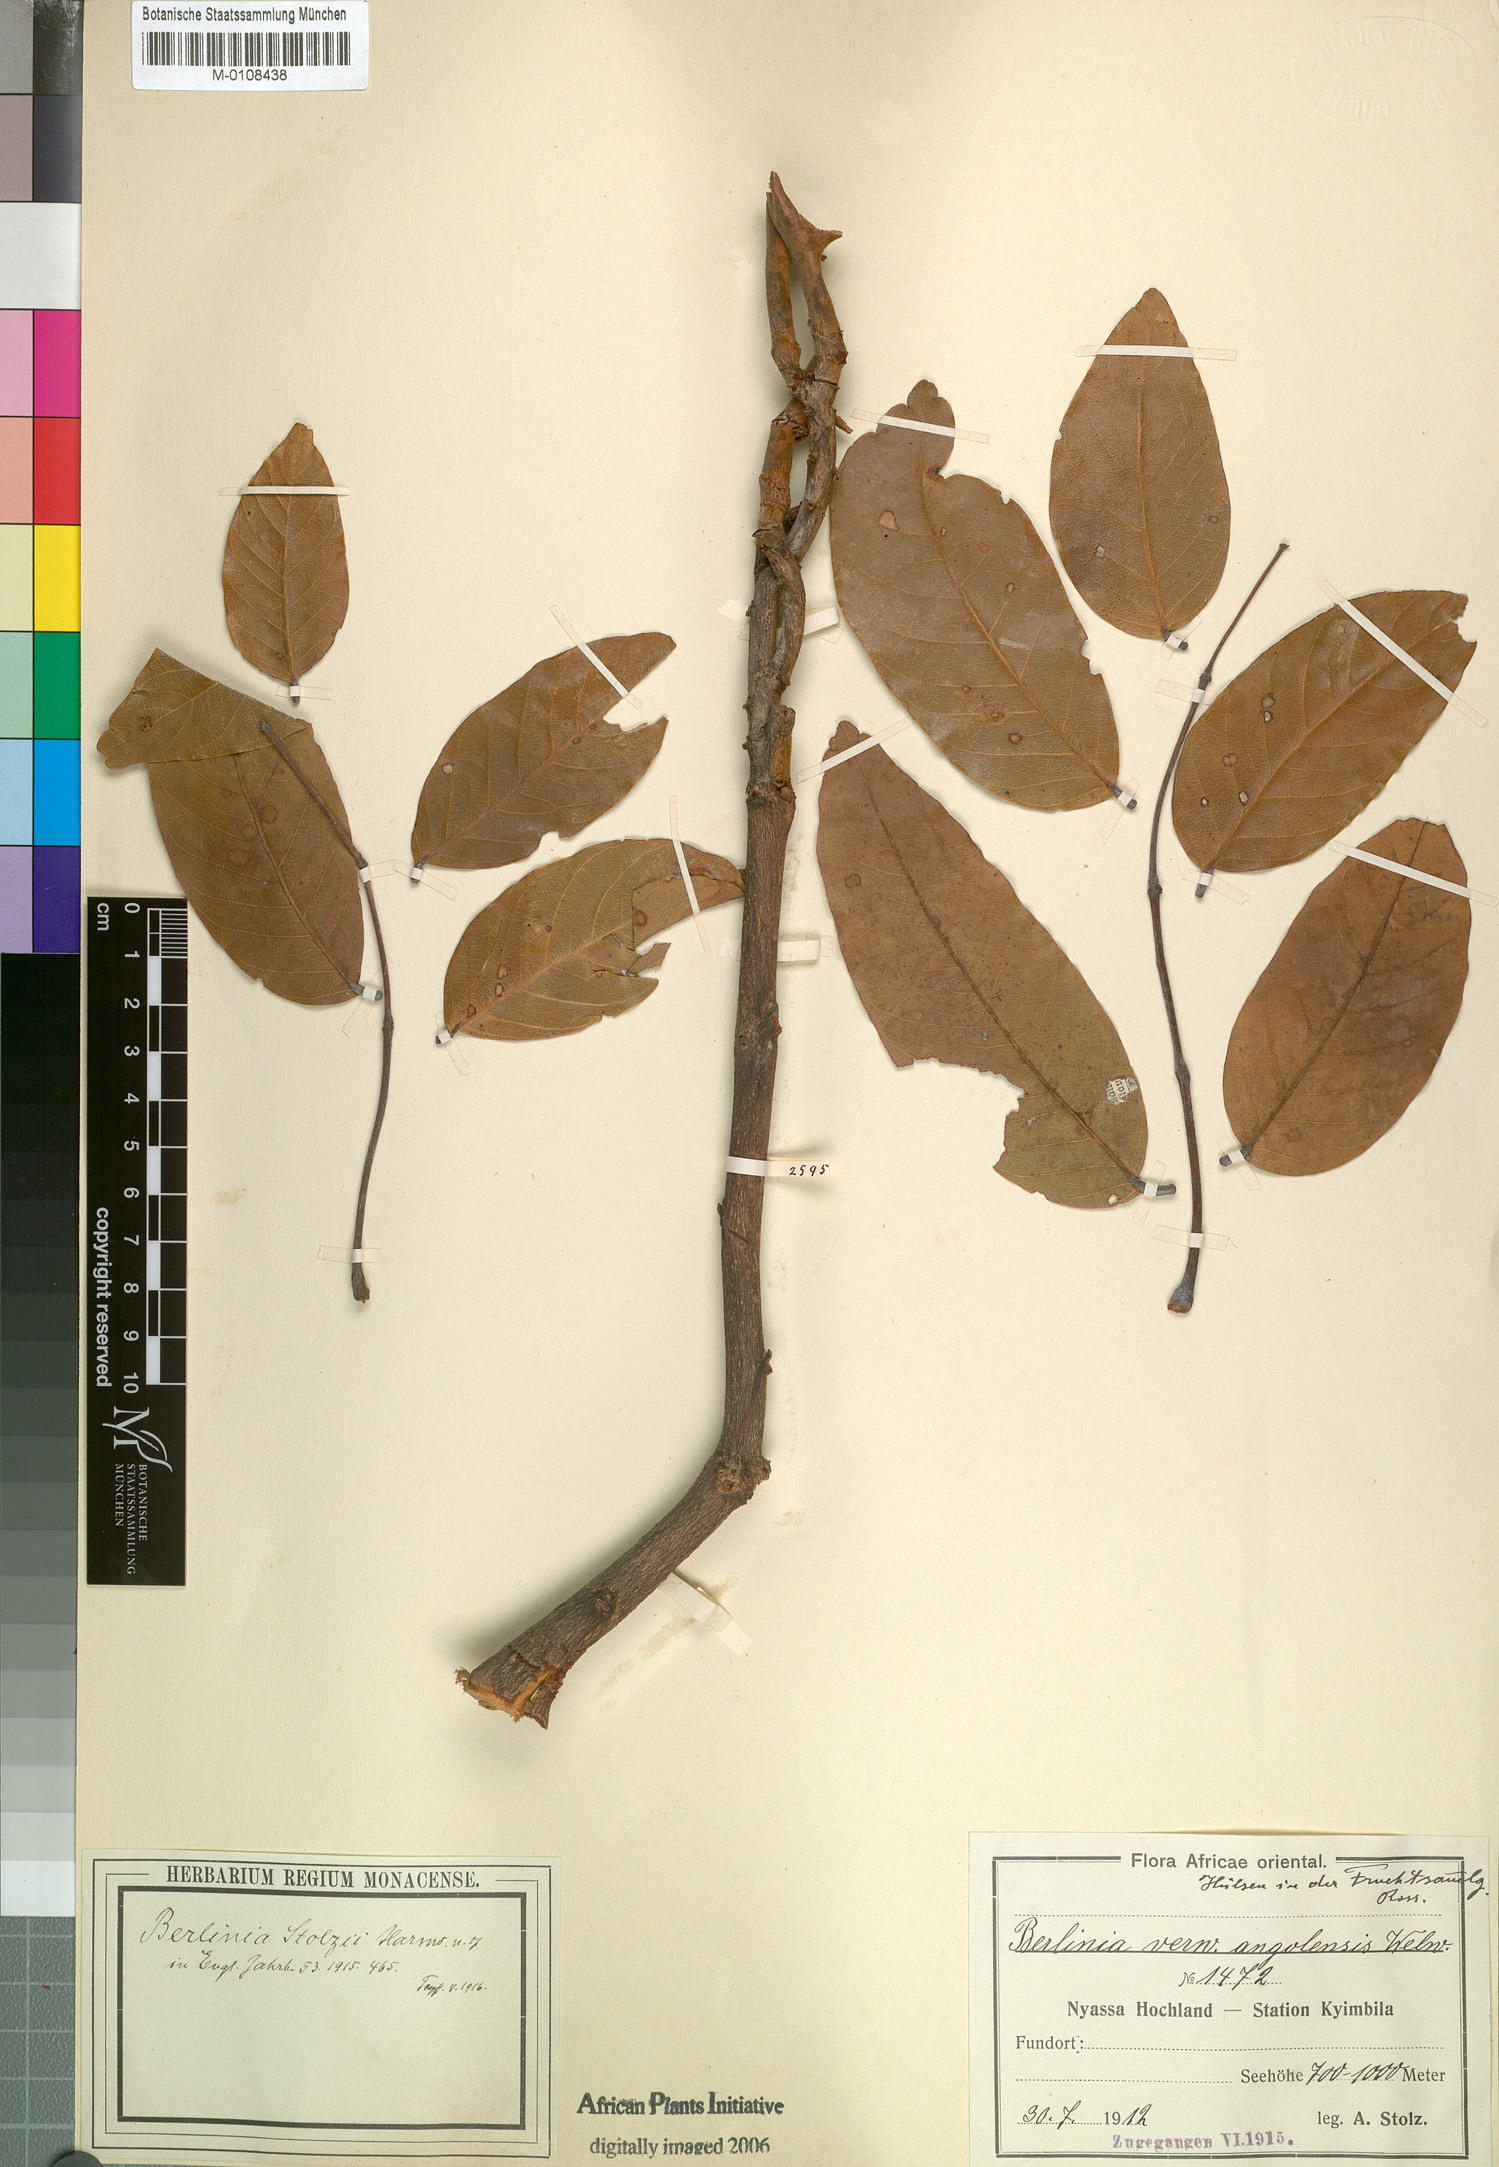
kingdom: Plantae
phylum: Tracheophyta
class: Magnoliopsida
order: Fabales
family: Fabaceae
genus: Isoberlinia
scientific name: Isoberlinia angolensis
